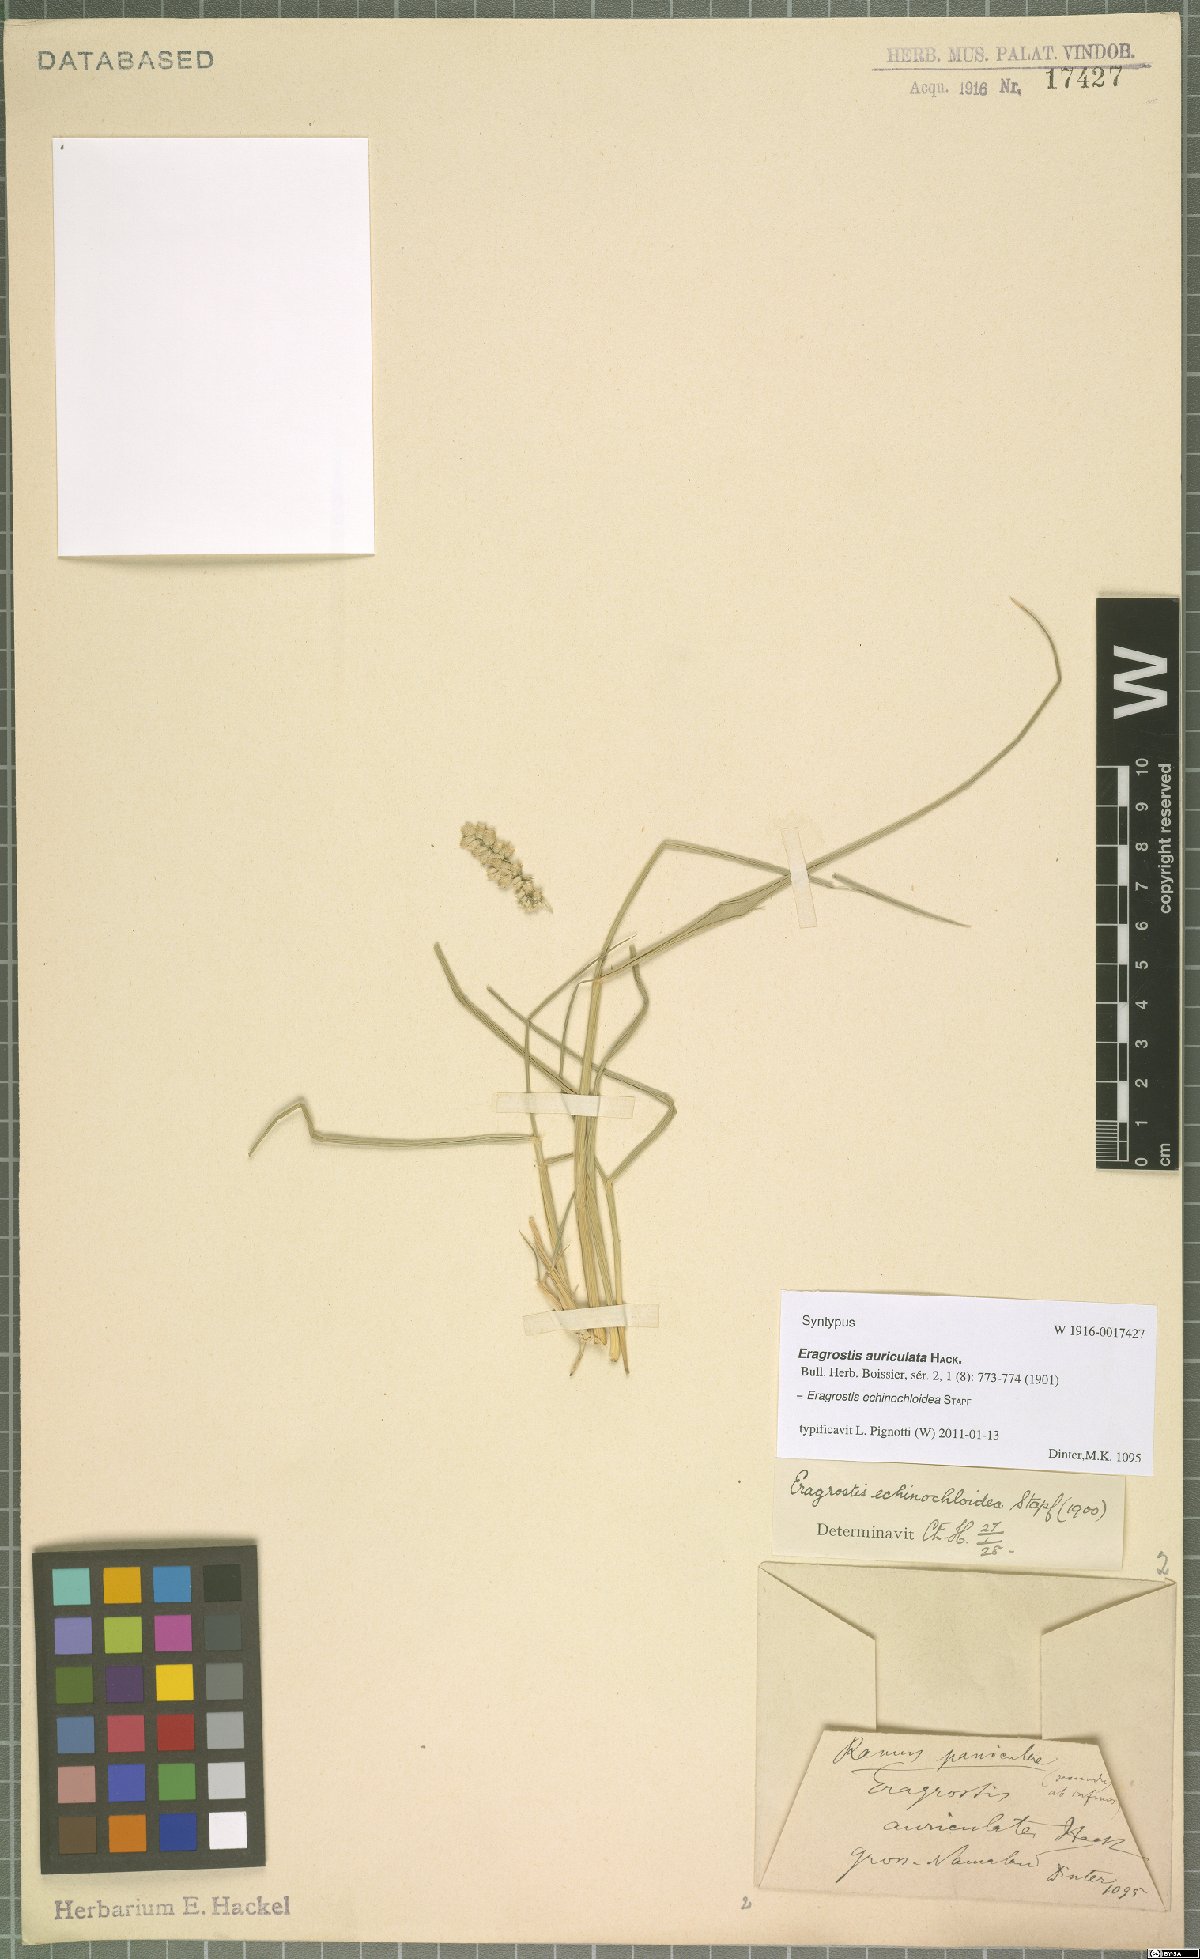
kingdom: Plantae
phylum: Tracheophyta
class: Liliopsida
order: Poales
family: Poaceae
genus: Eragrostis
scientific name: Eragrostis echinochloidea
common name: African lovegrass
